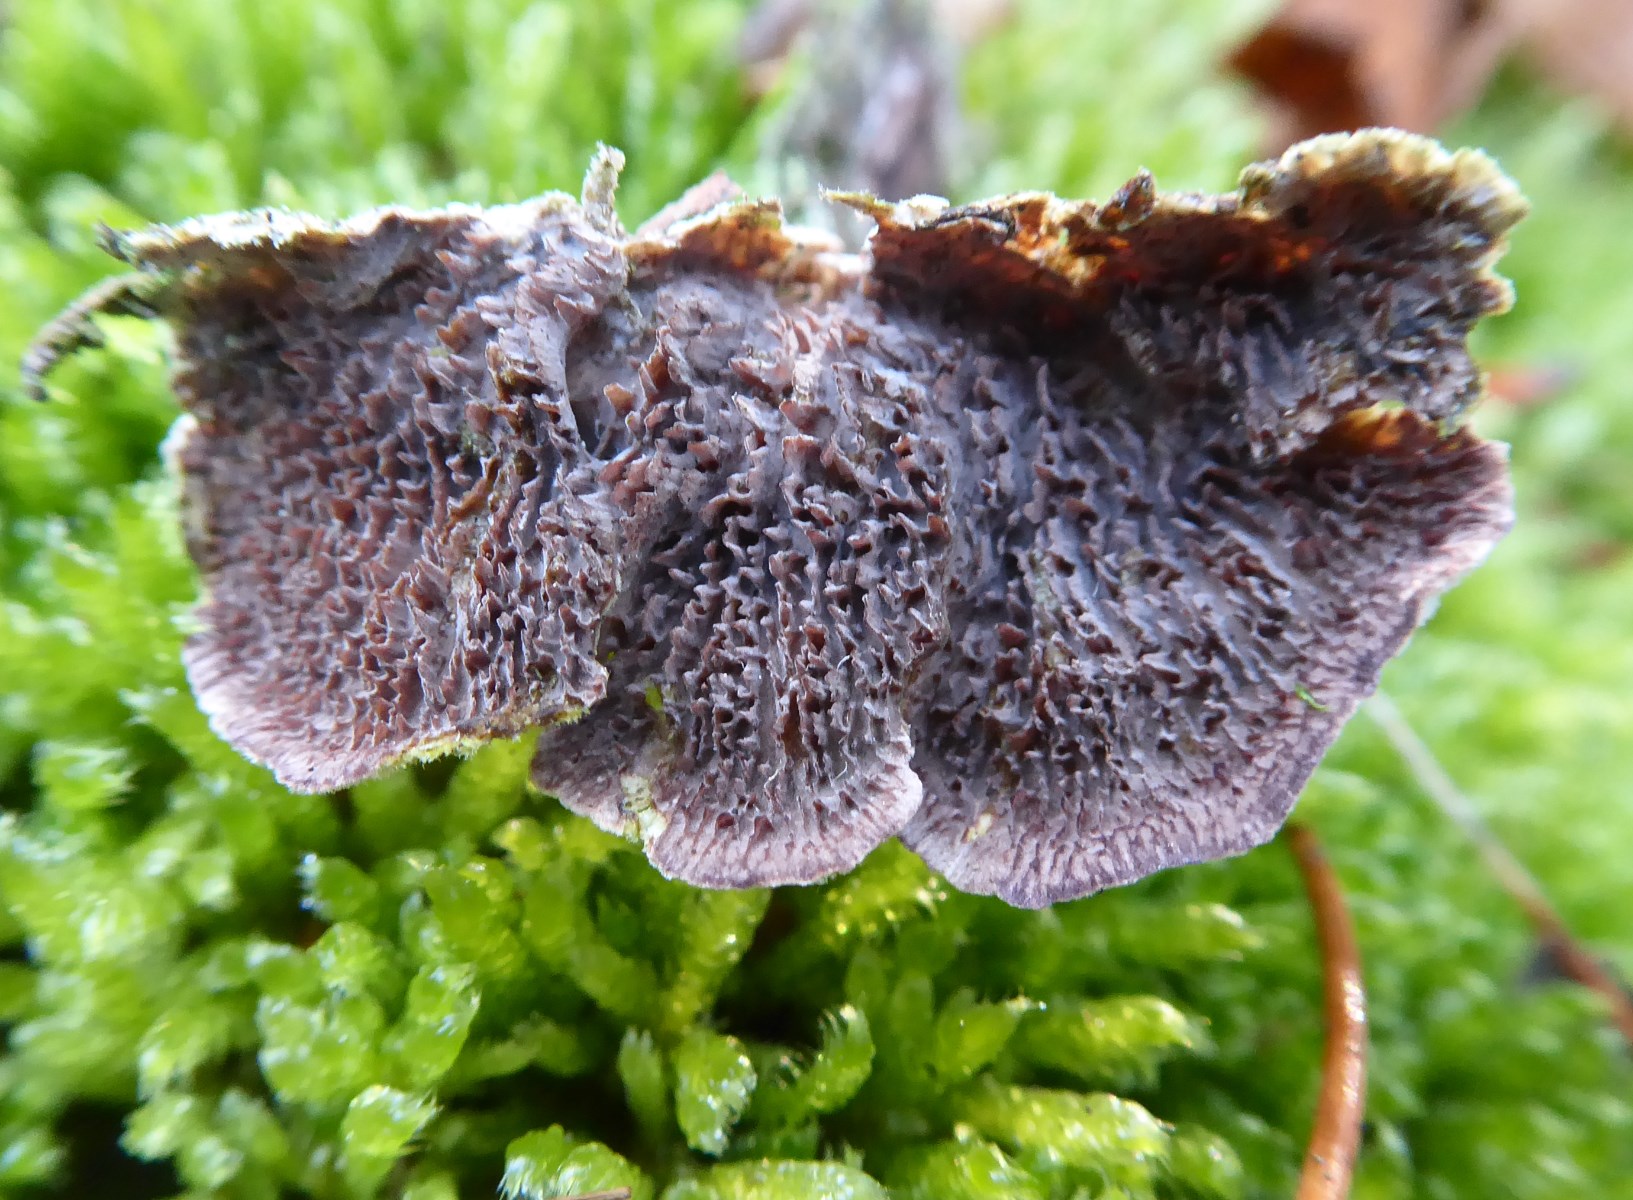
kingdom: Fungi
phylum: Basidiomycota
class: Agaricomycetes
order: Hymenochaetales
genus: Trichaptum
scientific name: Trichaptum fuscoviolaceum
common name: tandet violporesvamp
